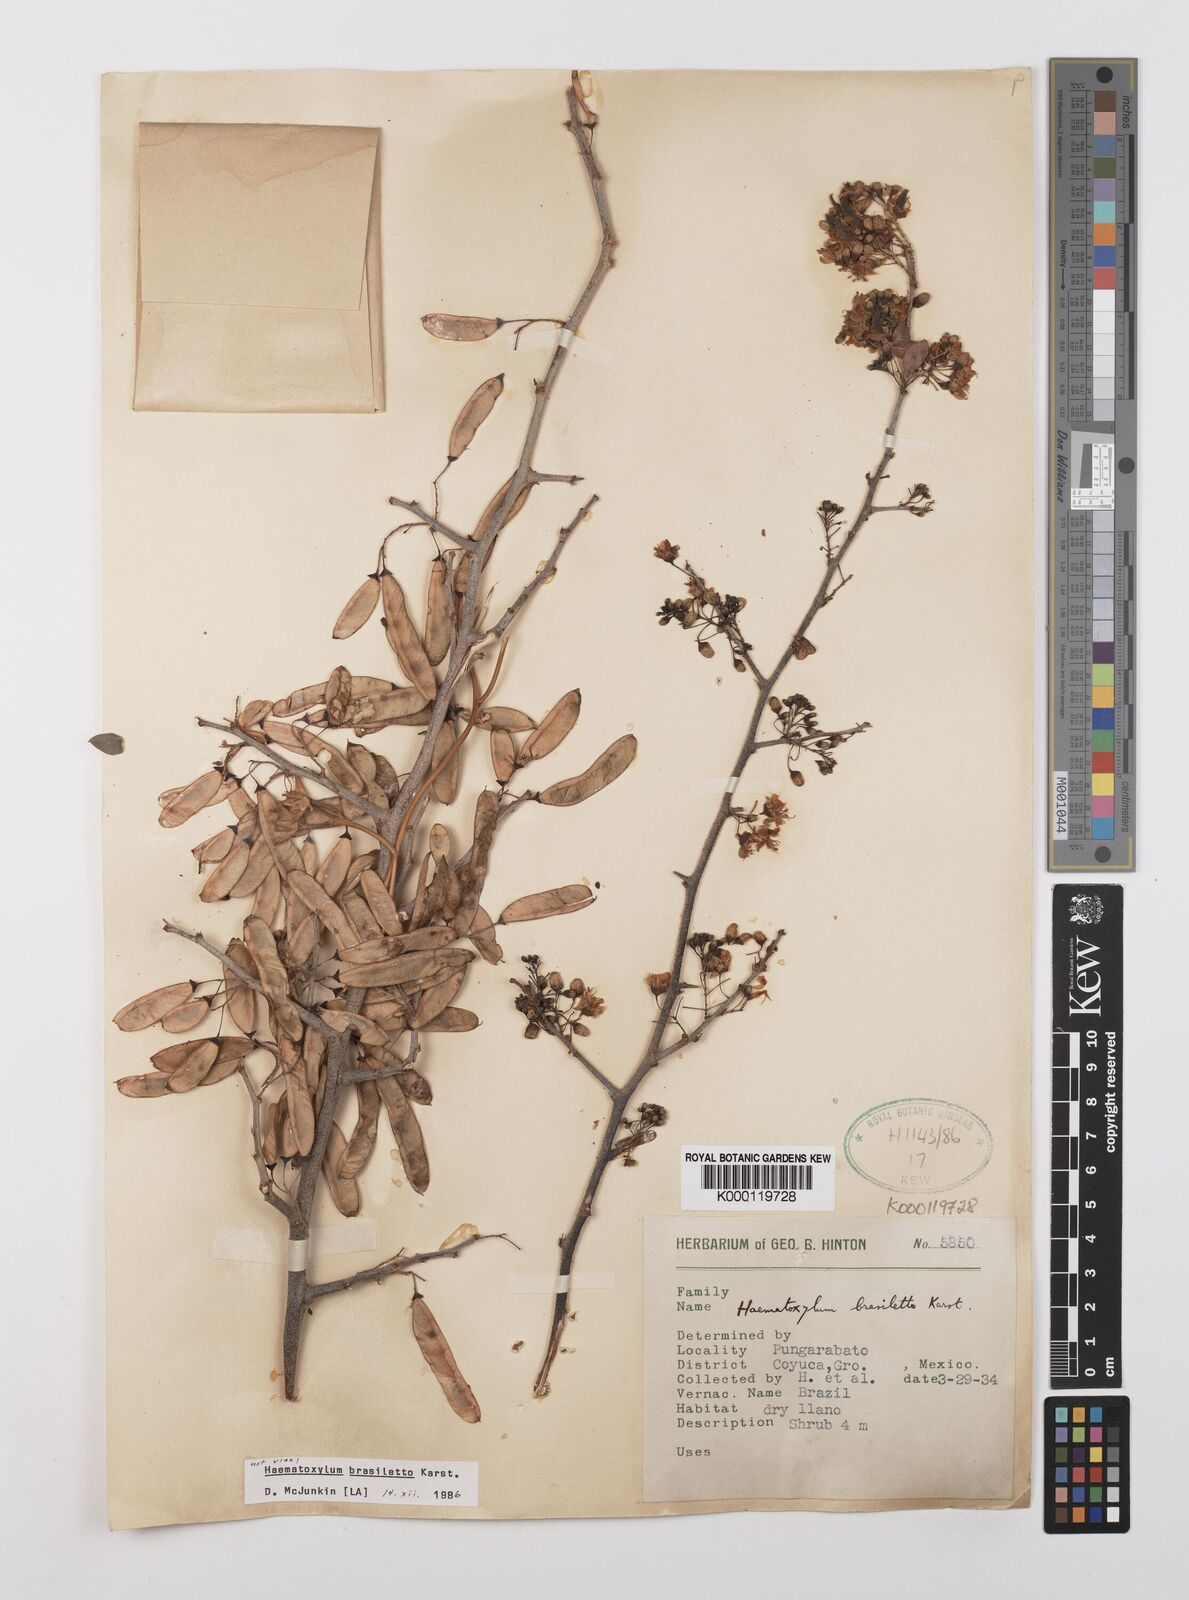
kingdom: Plantae
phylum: Tracheophyta
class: Magnoliopsida
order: Fabales
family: Fabaceae
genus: Haematoxylum
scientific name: Haematoxylum brasiletto
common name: Peachwood
